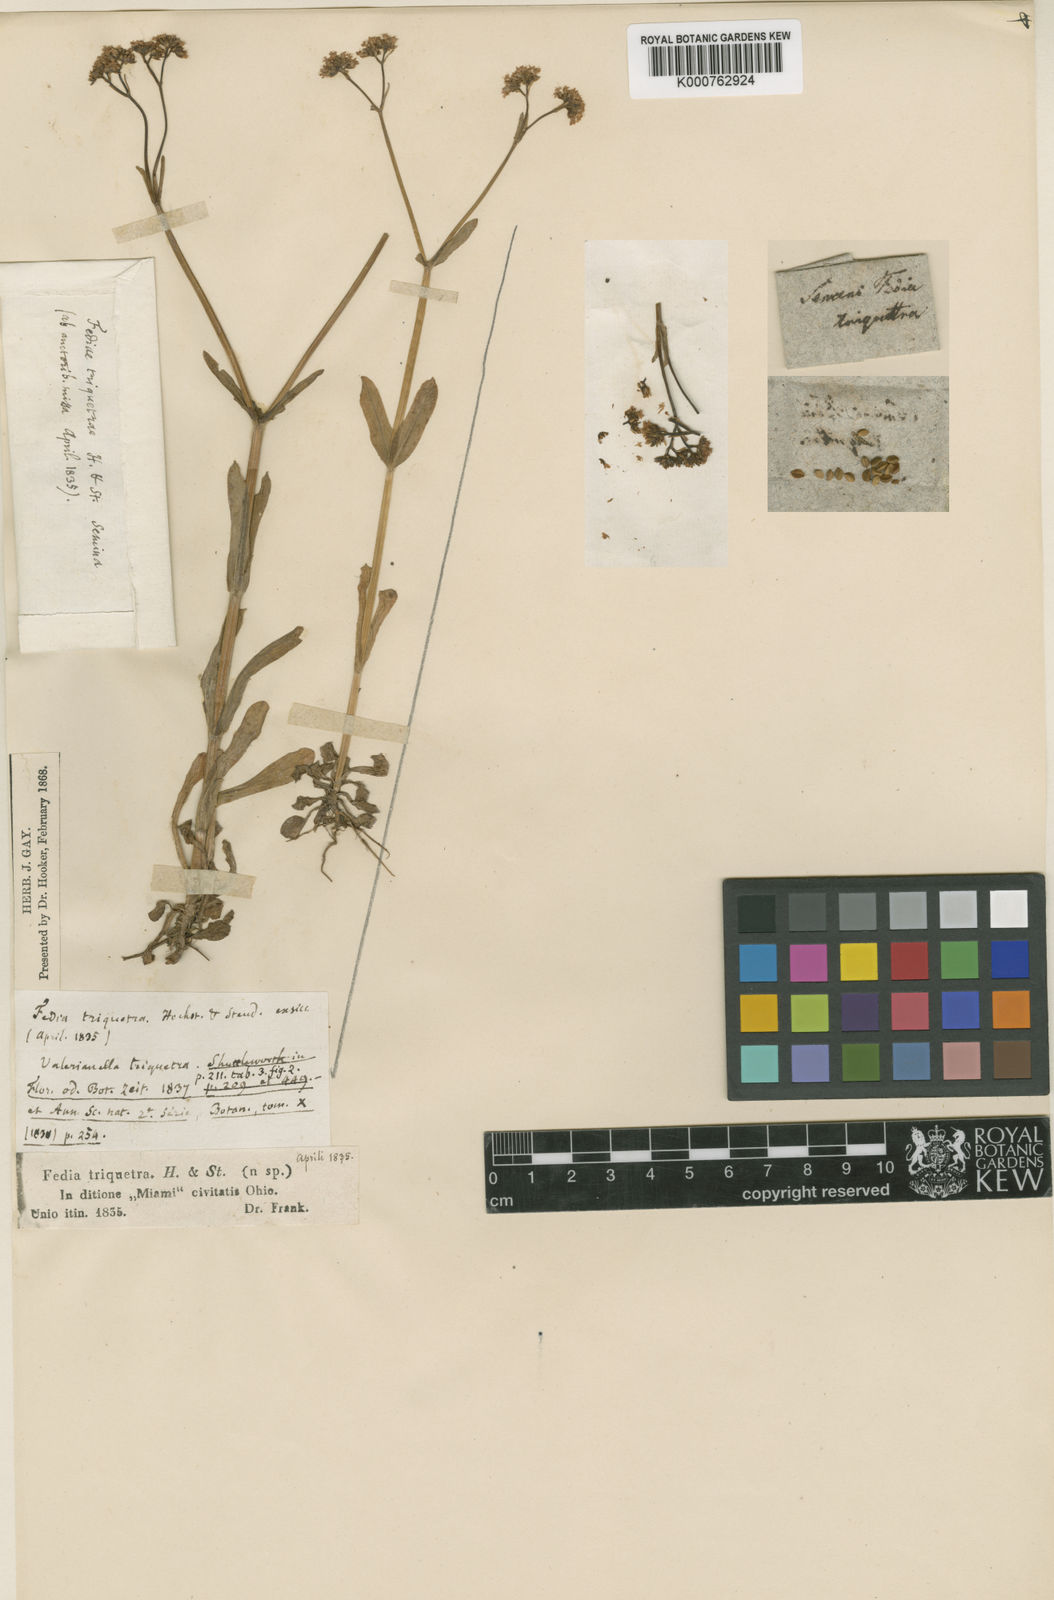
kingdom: Plantae
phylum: Tracheophyta
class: Magnoliopsida
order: Dipsacales
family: Caprifoliaceae
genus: Valerianella
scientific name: Valerianella chenopodiifolia
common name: Goosefoot cornsalad
